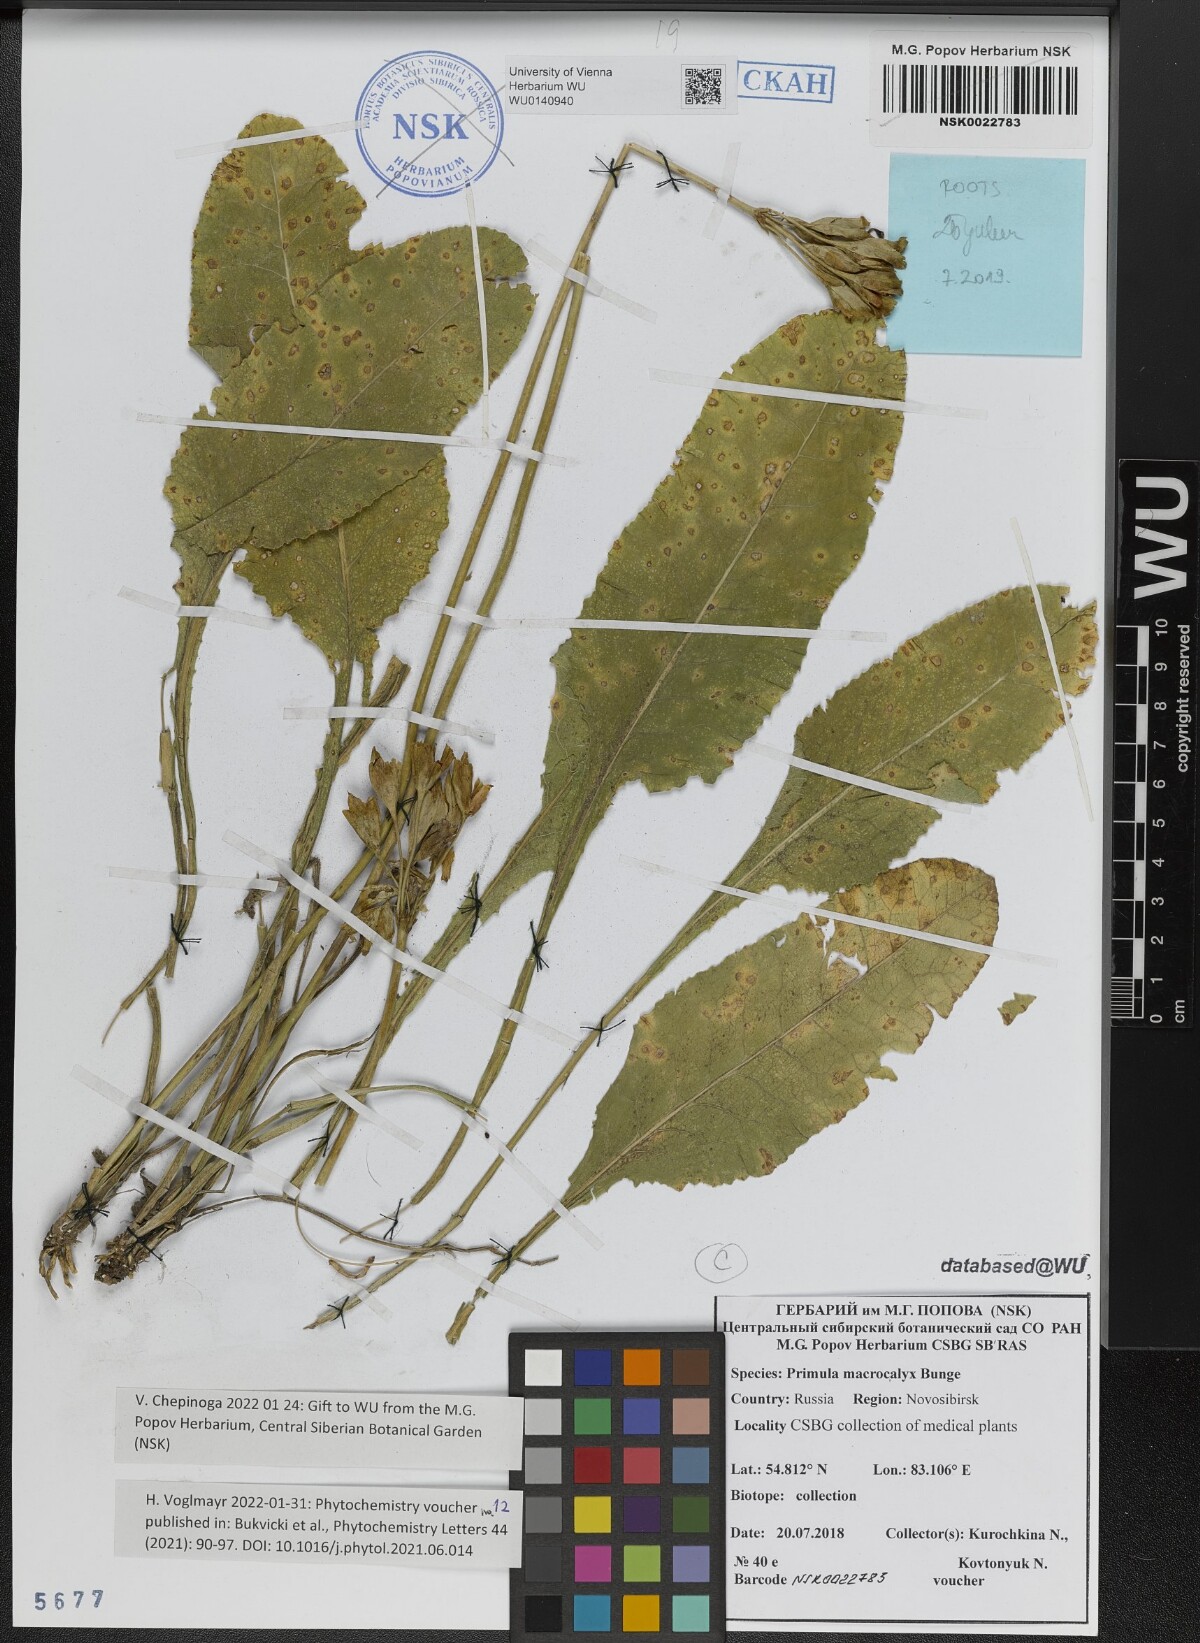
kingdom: Plantae
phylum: Tracheophyta
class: Magnoliopsida
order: Ericales
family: Primulaceae
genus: Primula
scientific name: Primula veris
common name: Cowslip
